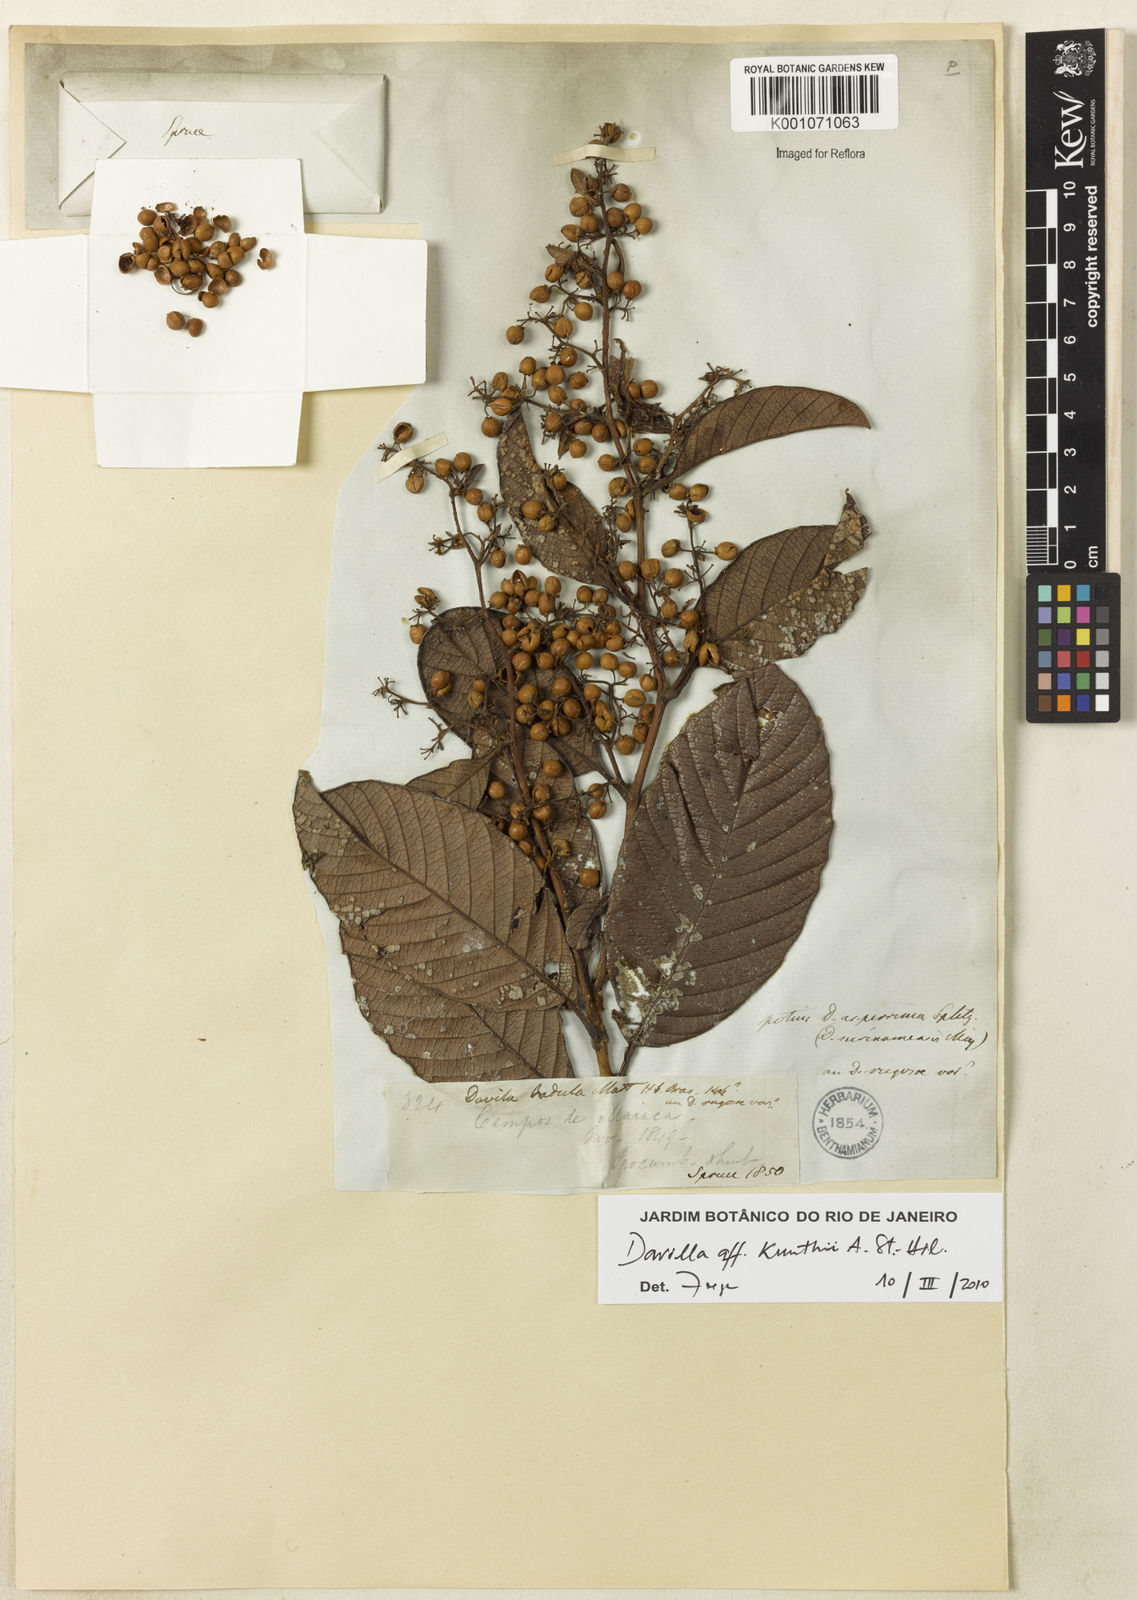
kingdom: Plantae
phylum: Tracheophyta
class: Magnoliopsida
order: Dilleniales
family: Dilleniaceae
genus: Davilla
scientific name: Davilla kunthii
